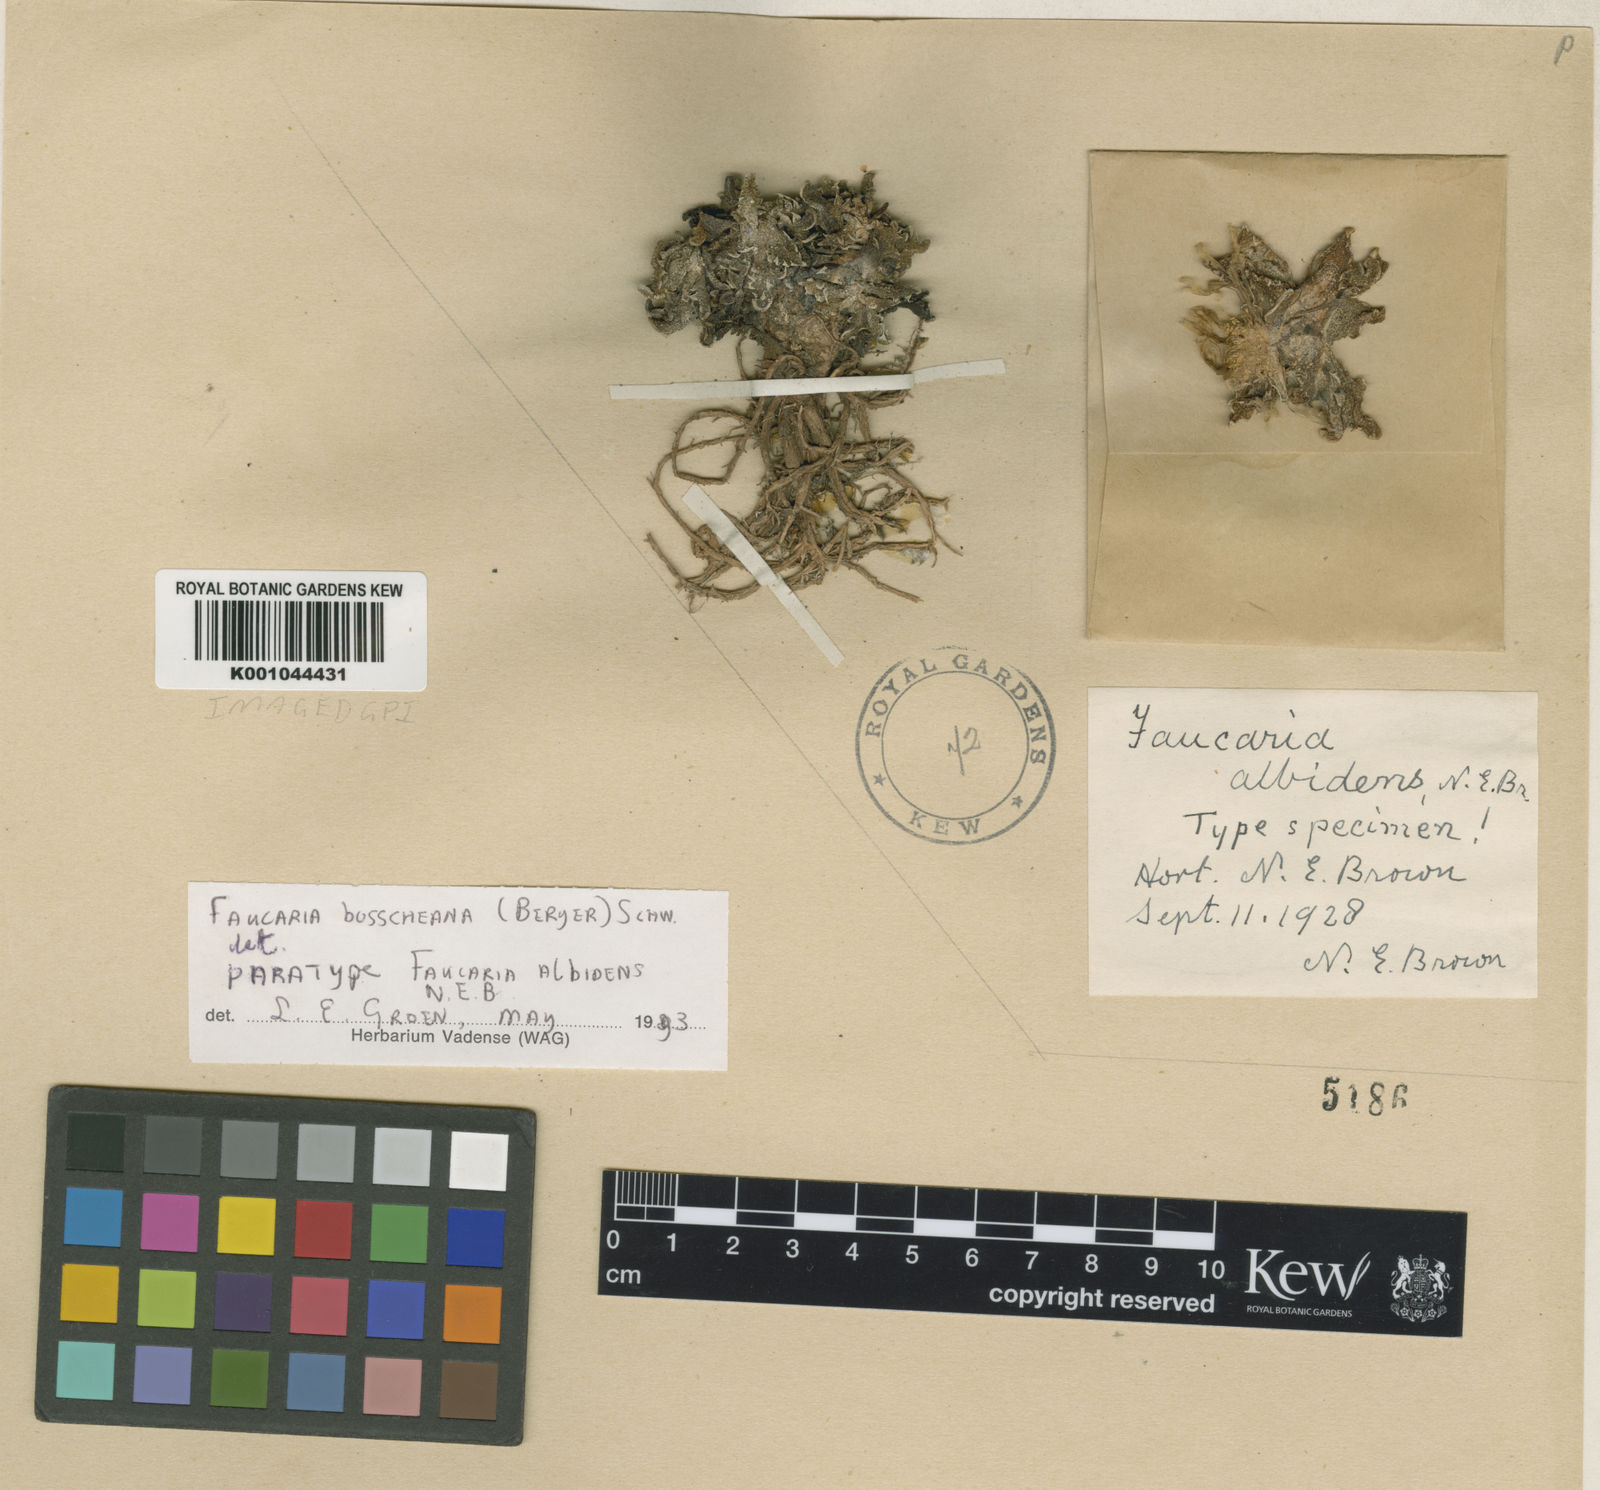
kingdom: Plantae
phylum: Tracheophyta
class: Magnoliopsida
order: Caryophyllales
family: Aizoaceae
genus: Faucaria
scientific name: Faucaria bosscheana
